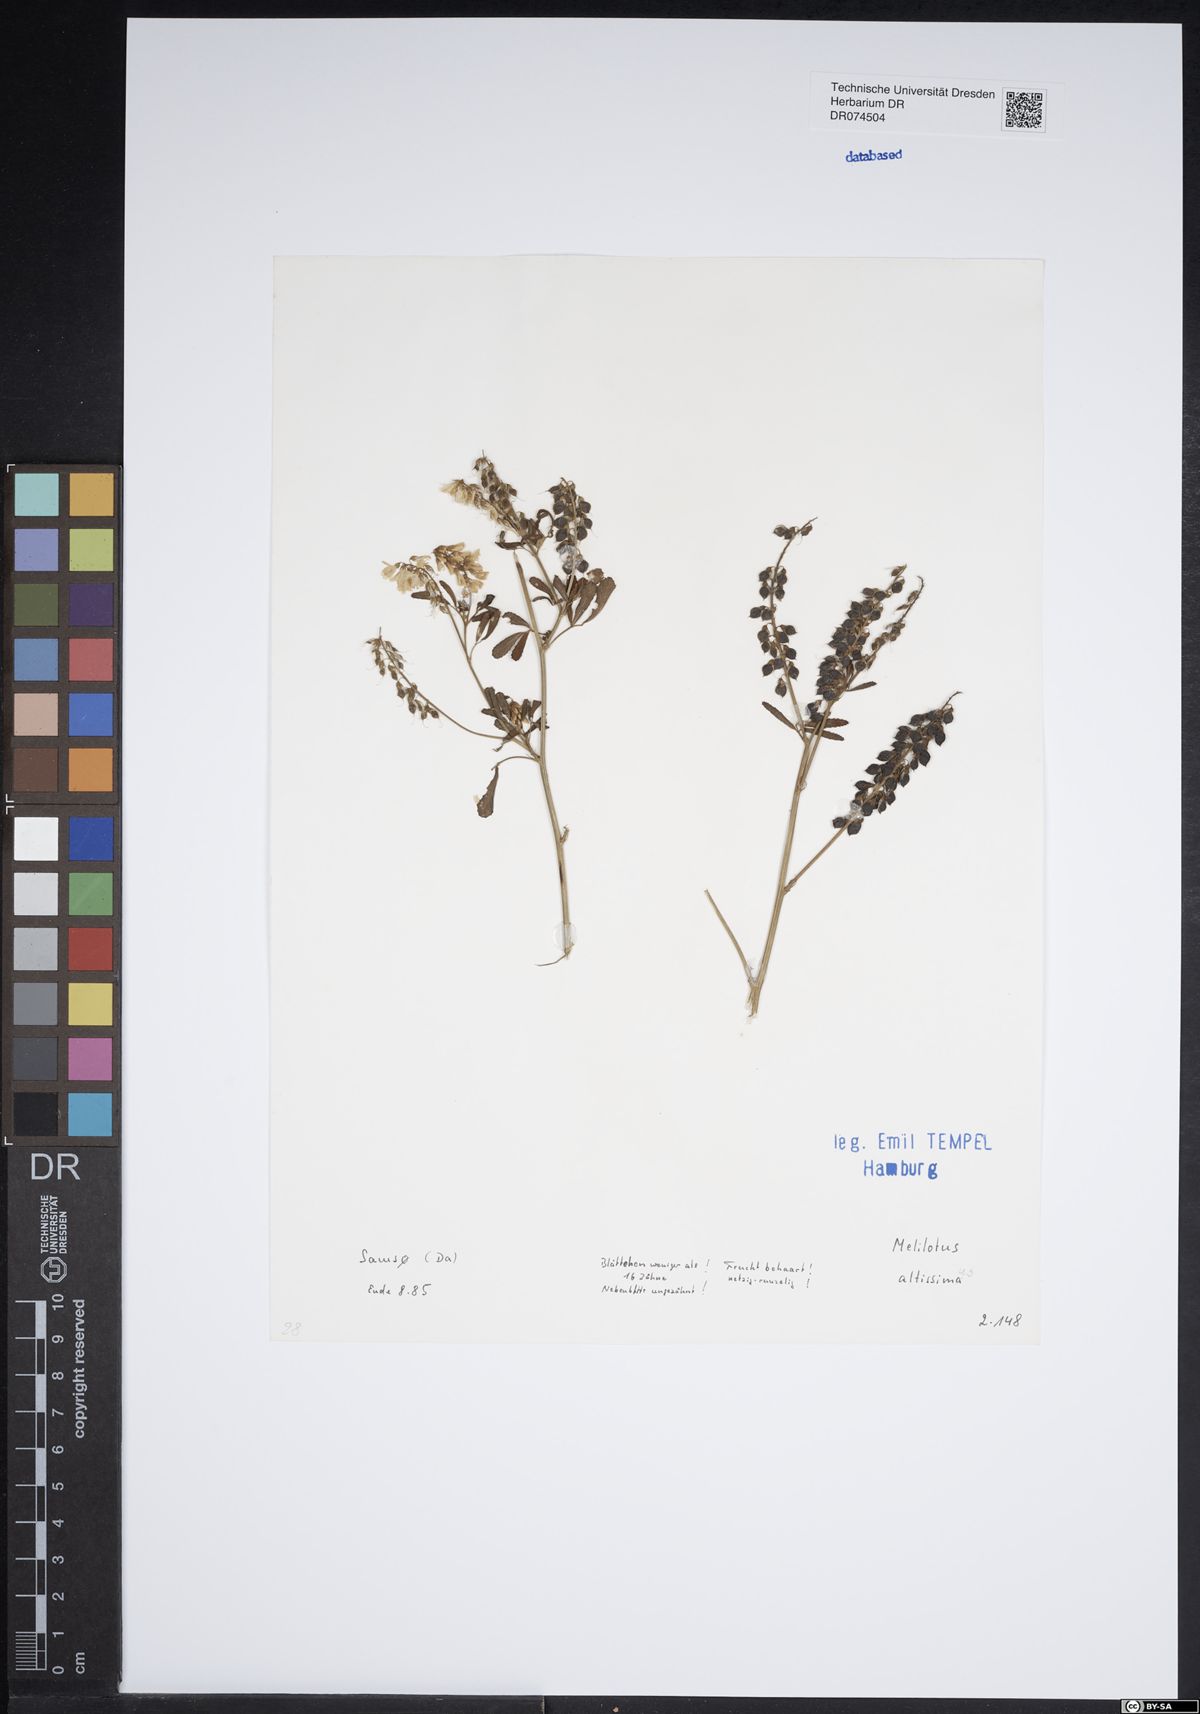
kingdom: Plantae
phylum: Tracheophyta
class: Magnoliopsida
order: Fabales
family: Fabaceae
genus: Melilotus
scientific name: Melilotus altissimus
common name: Tall melilot
